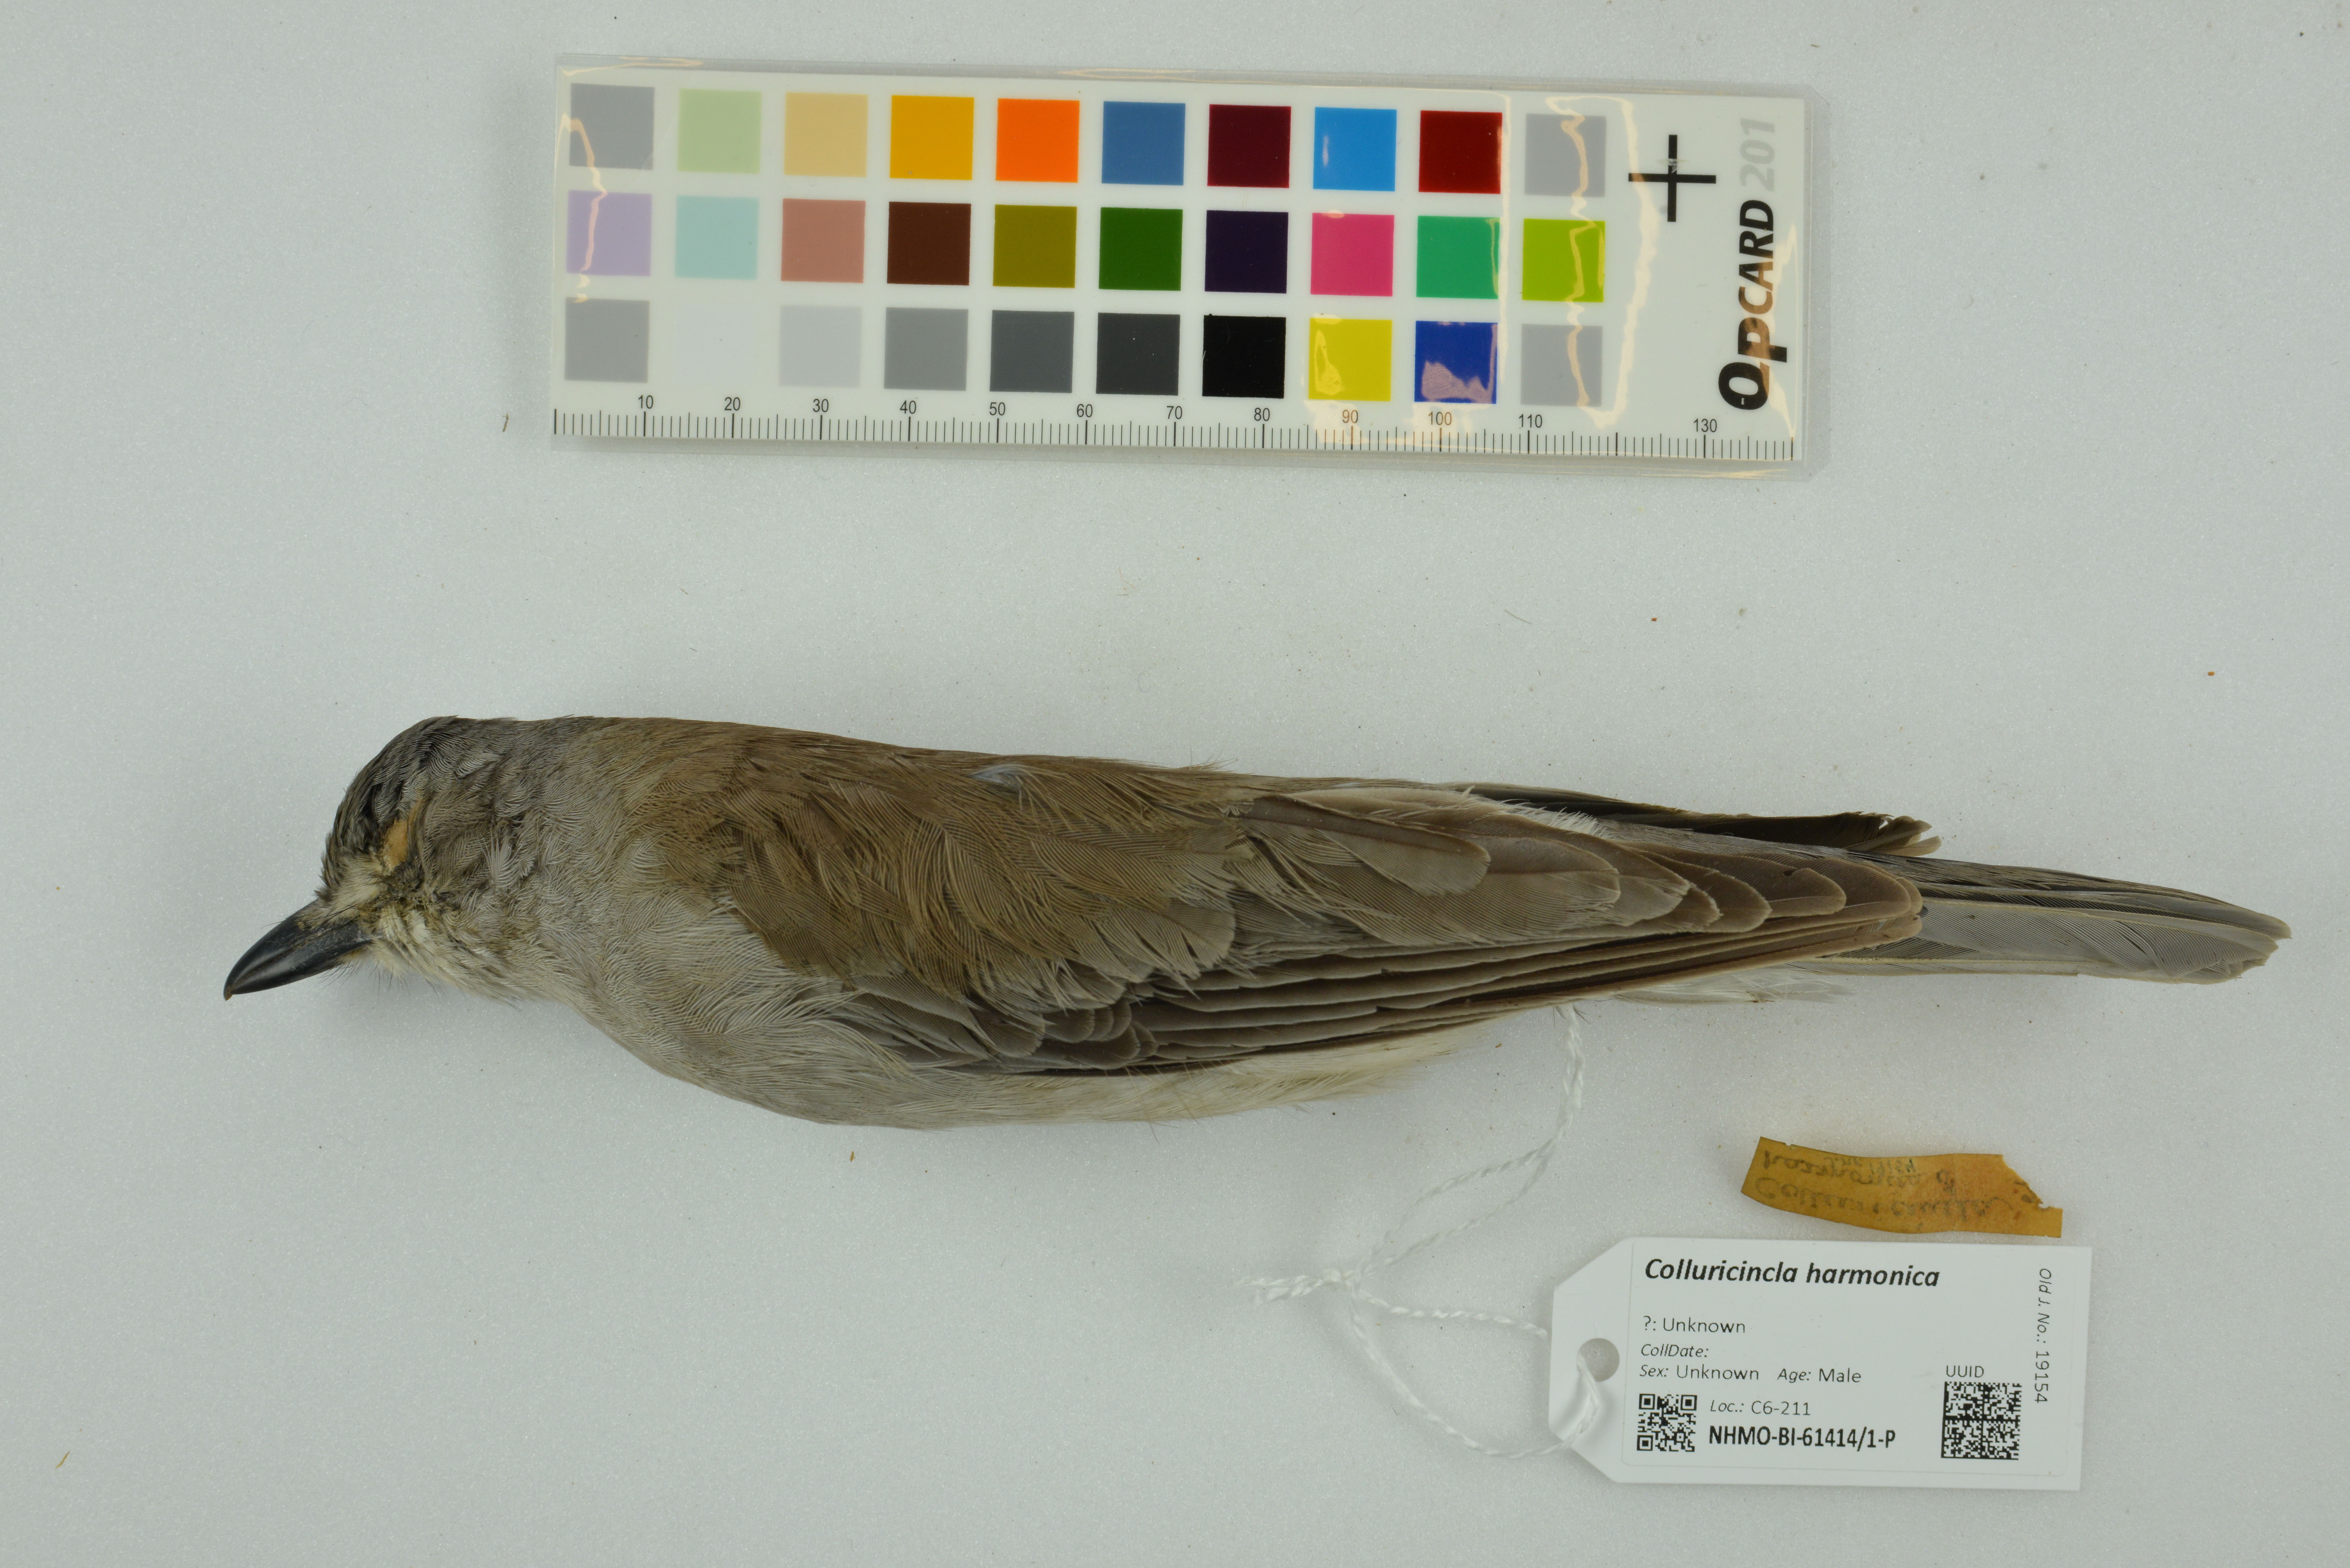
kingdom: Animalia
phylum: Chordata
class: Aves
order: Passeriformes
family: Pachycephalidae
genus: Colluricincla
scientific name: Colluricincla harmonica
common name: Grey shrikethrush
